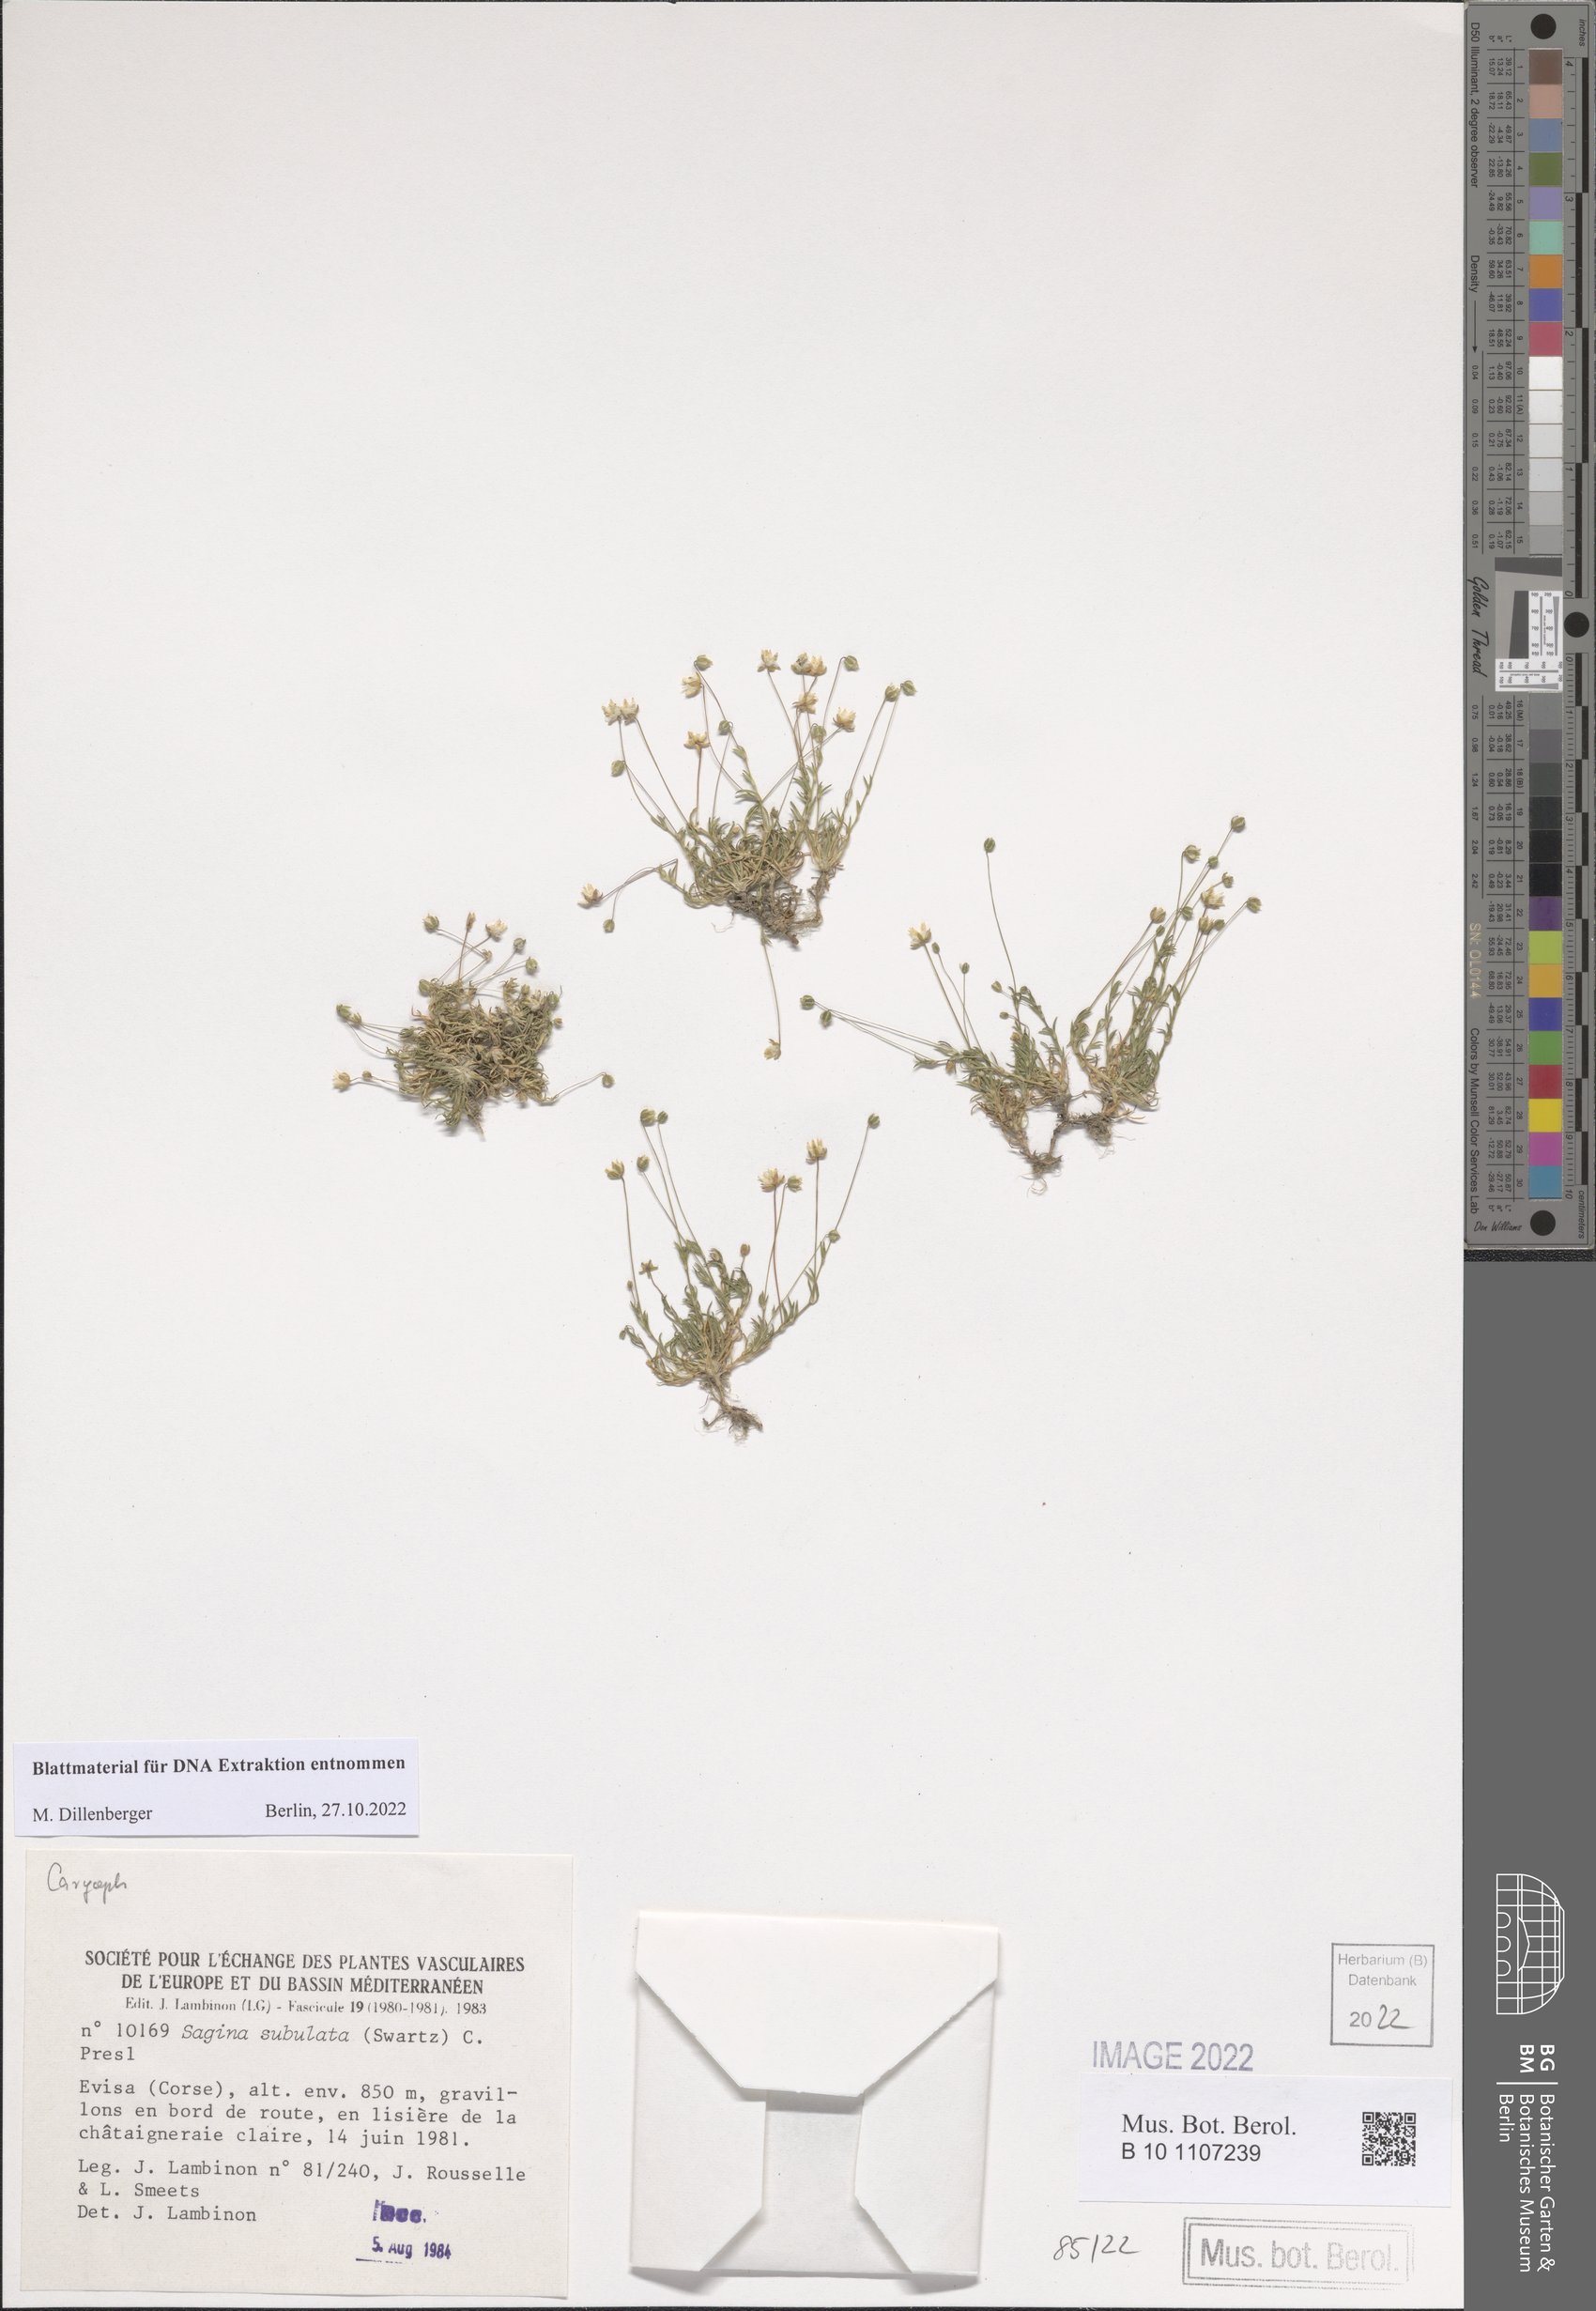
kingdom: Plantae
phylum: Tracheophyta
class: Magnoliopsida
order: Caryophyllales
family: Caryophyllaceae
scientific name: Caryophyllaceae
